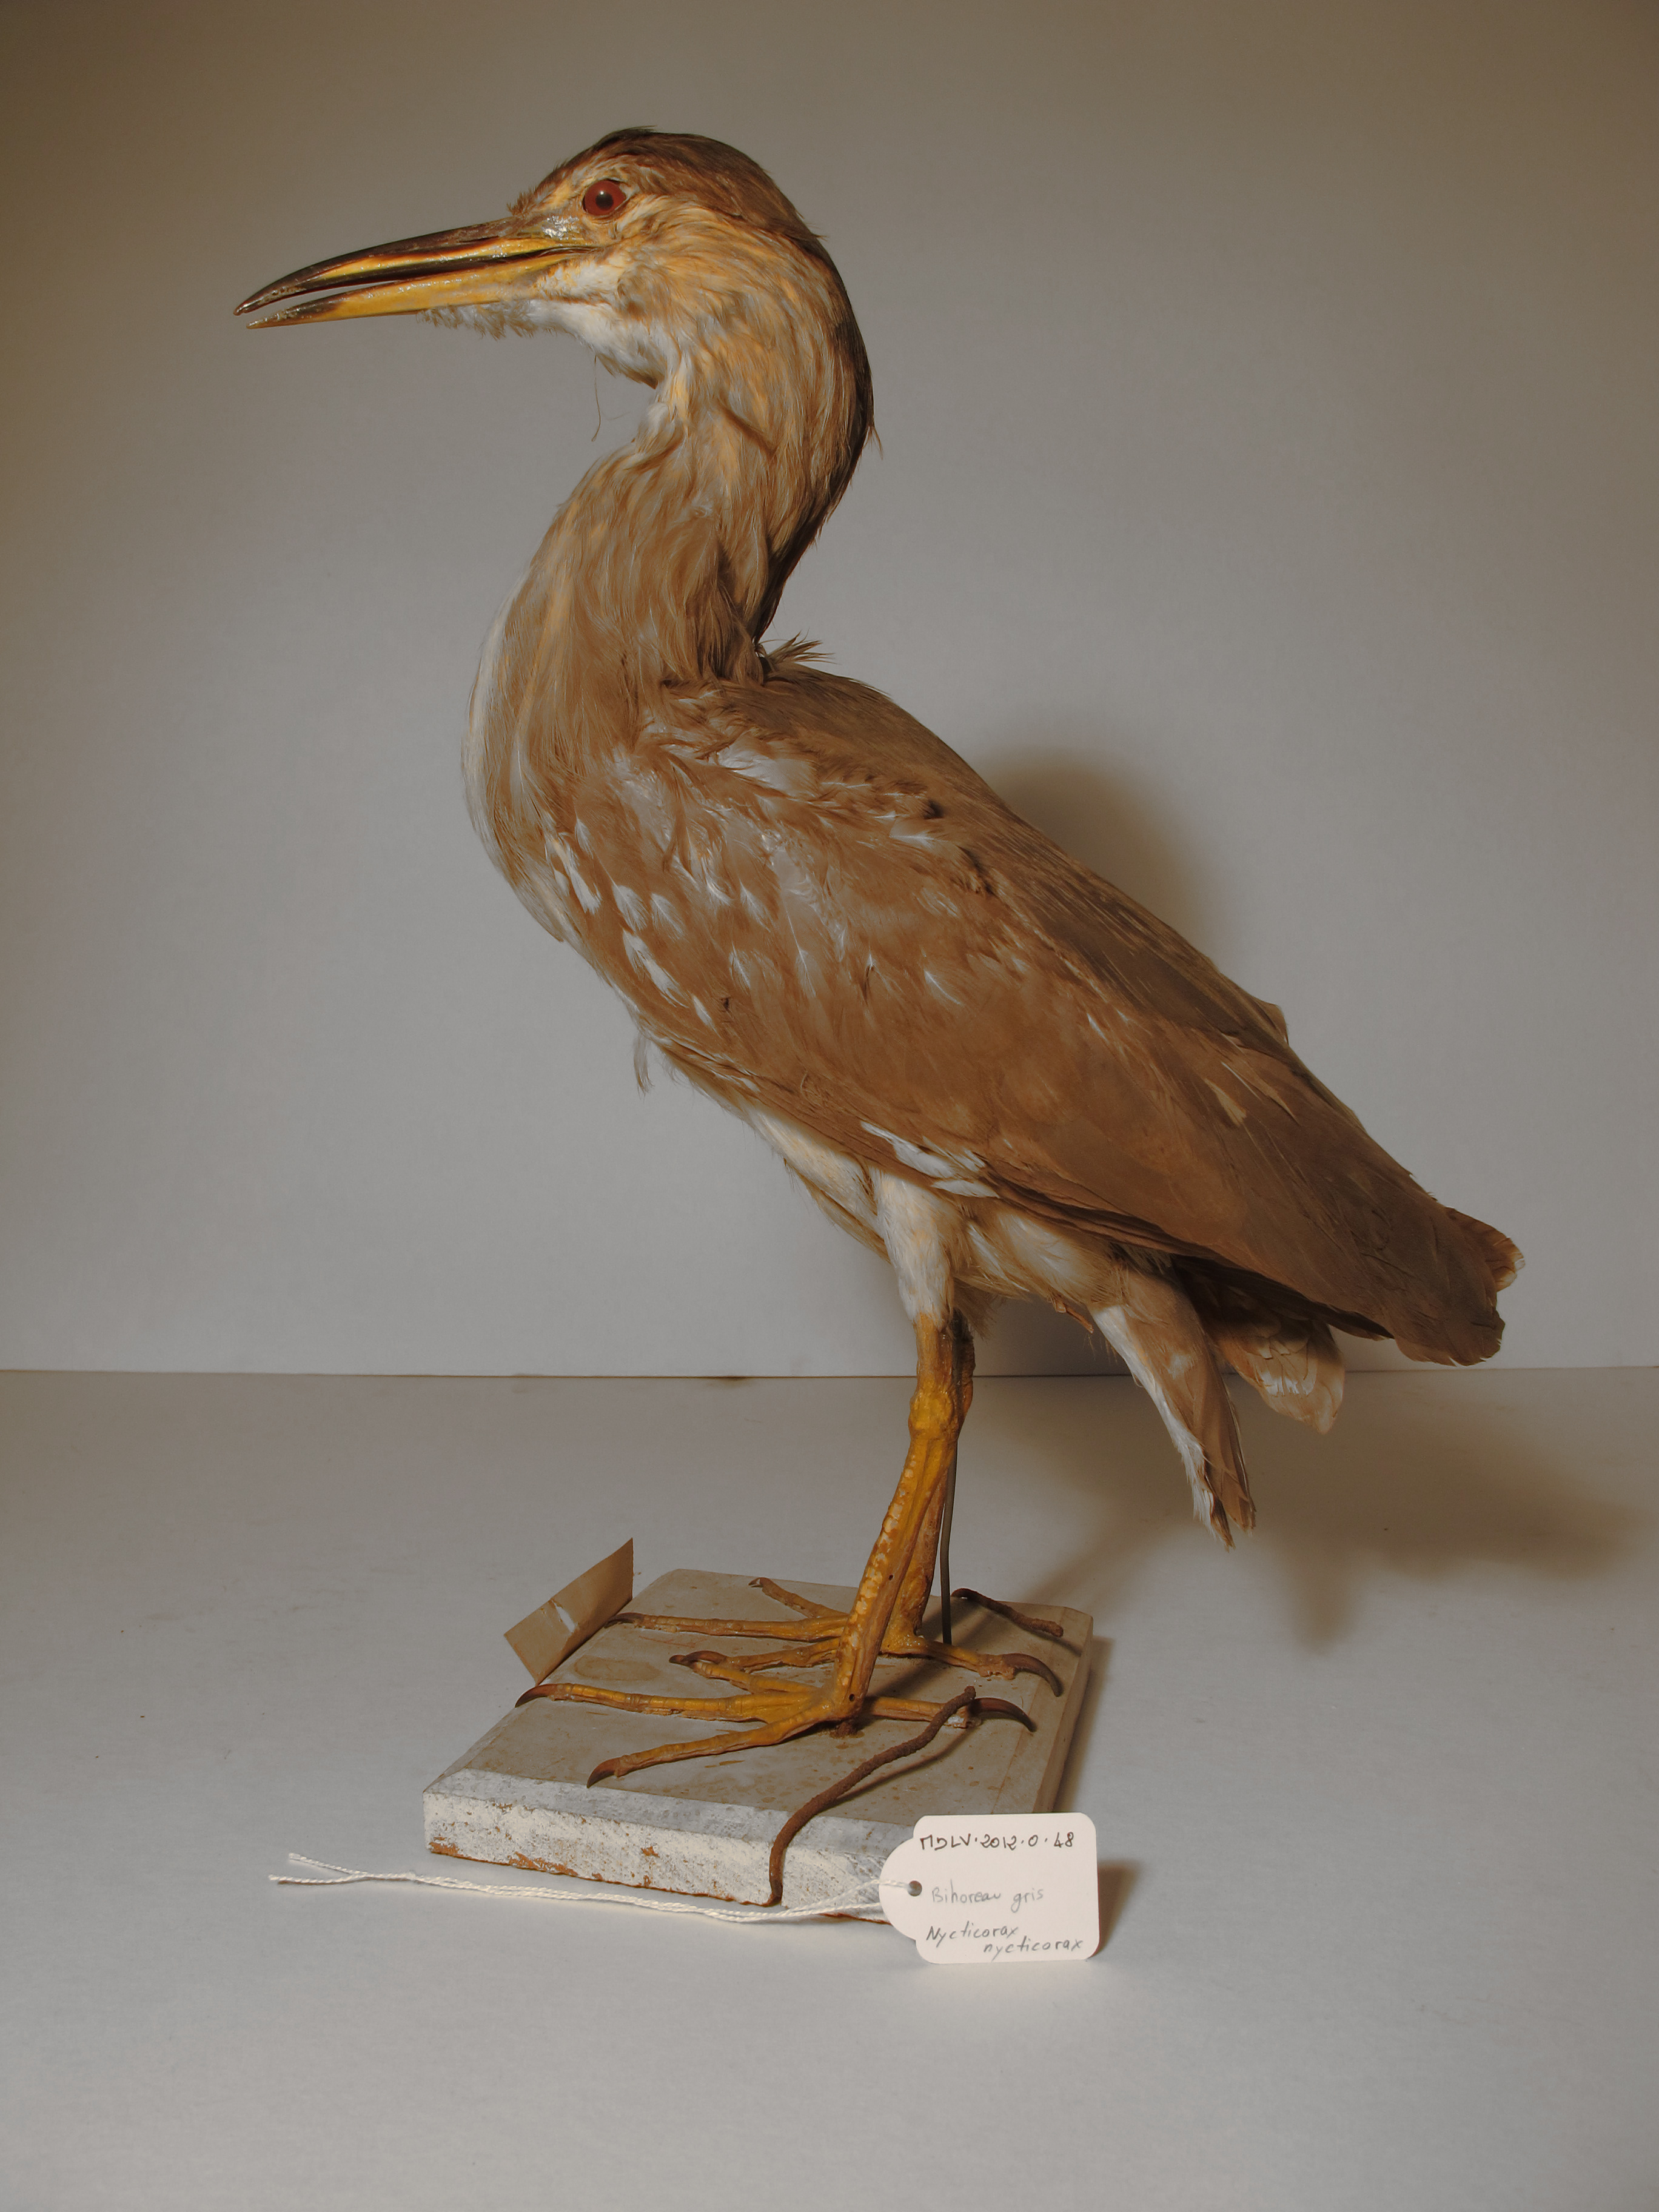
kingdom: Animalia
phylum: Chordata
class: Aves
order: Pelecaniformes
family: Ardeidae
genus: Nycticorax
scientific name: Nycticorax nycticorax
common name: Black-crowned Night-heron
